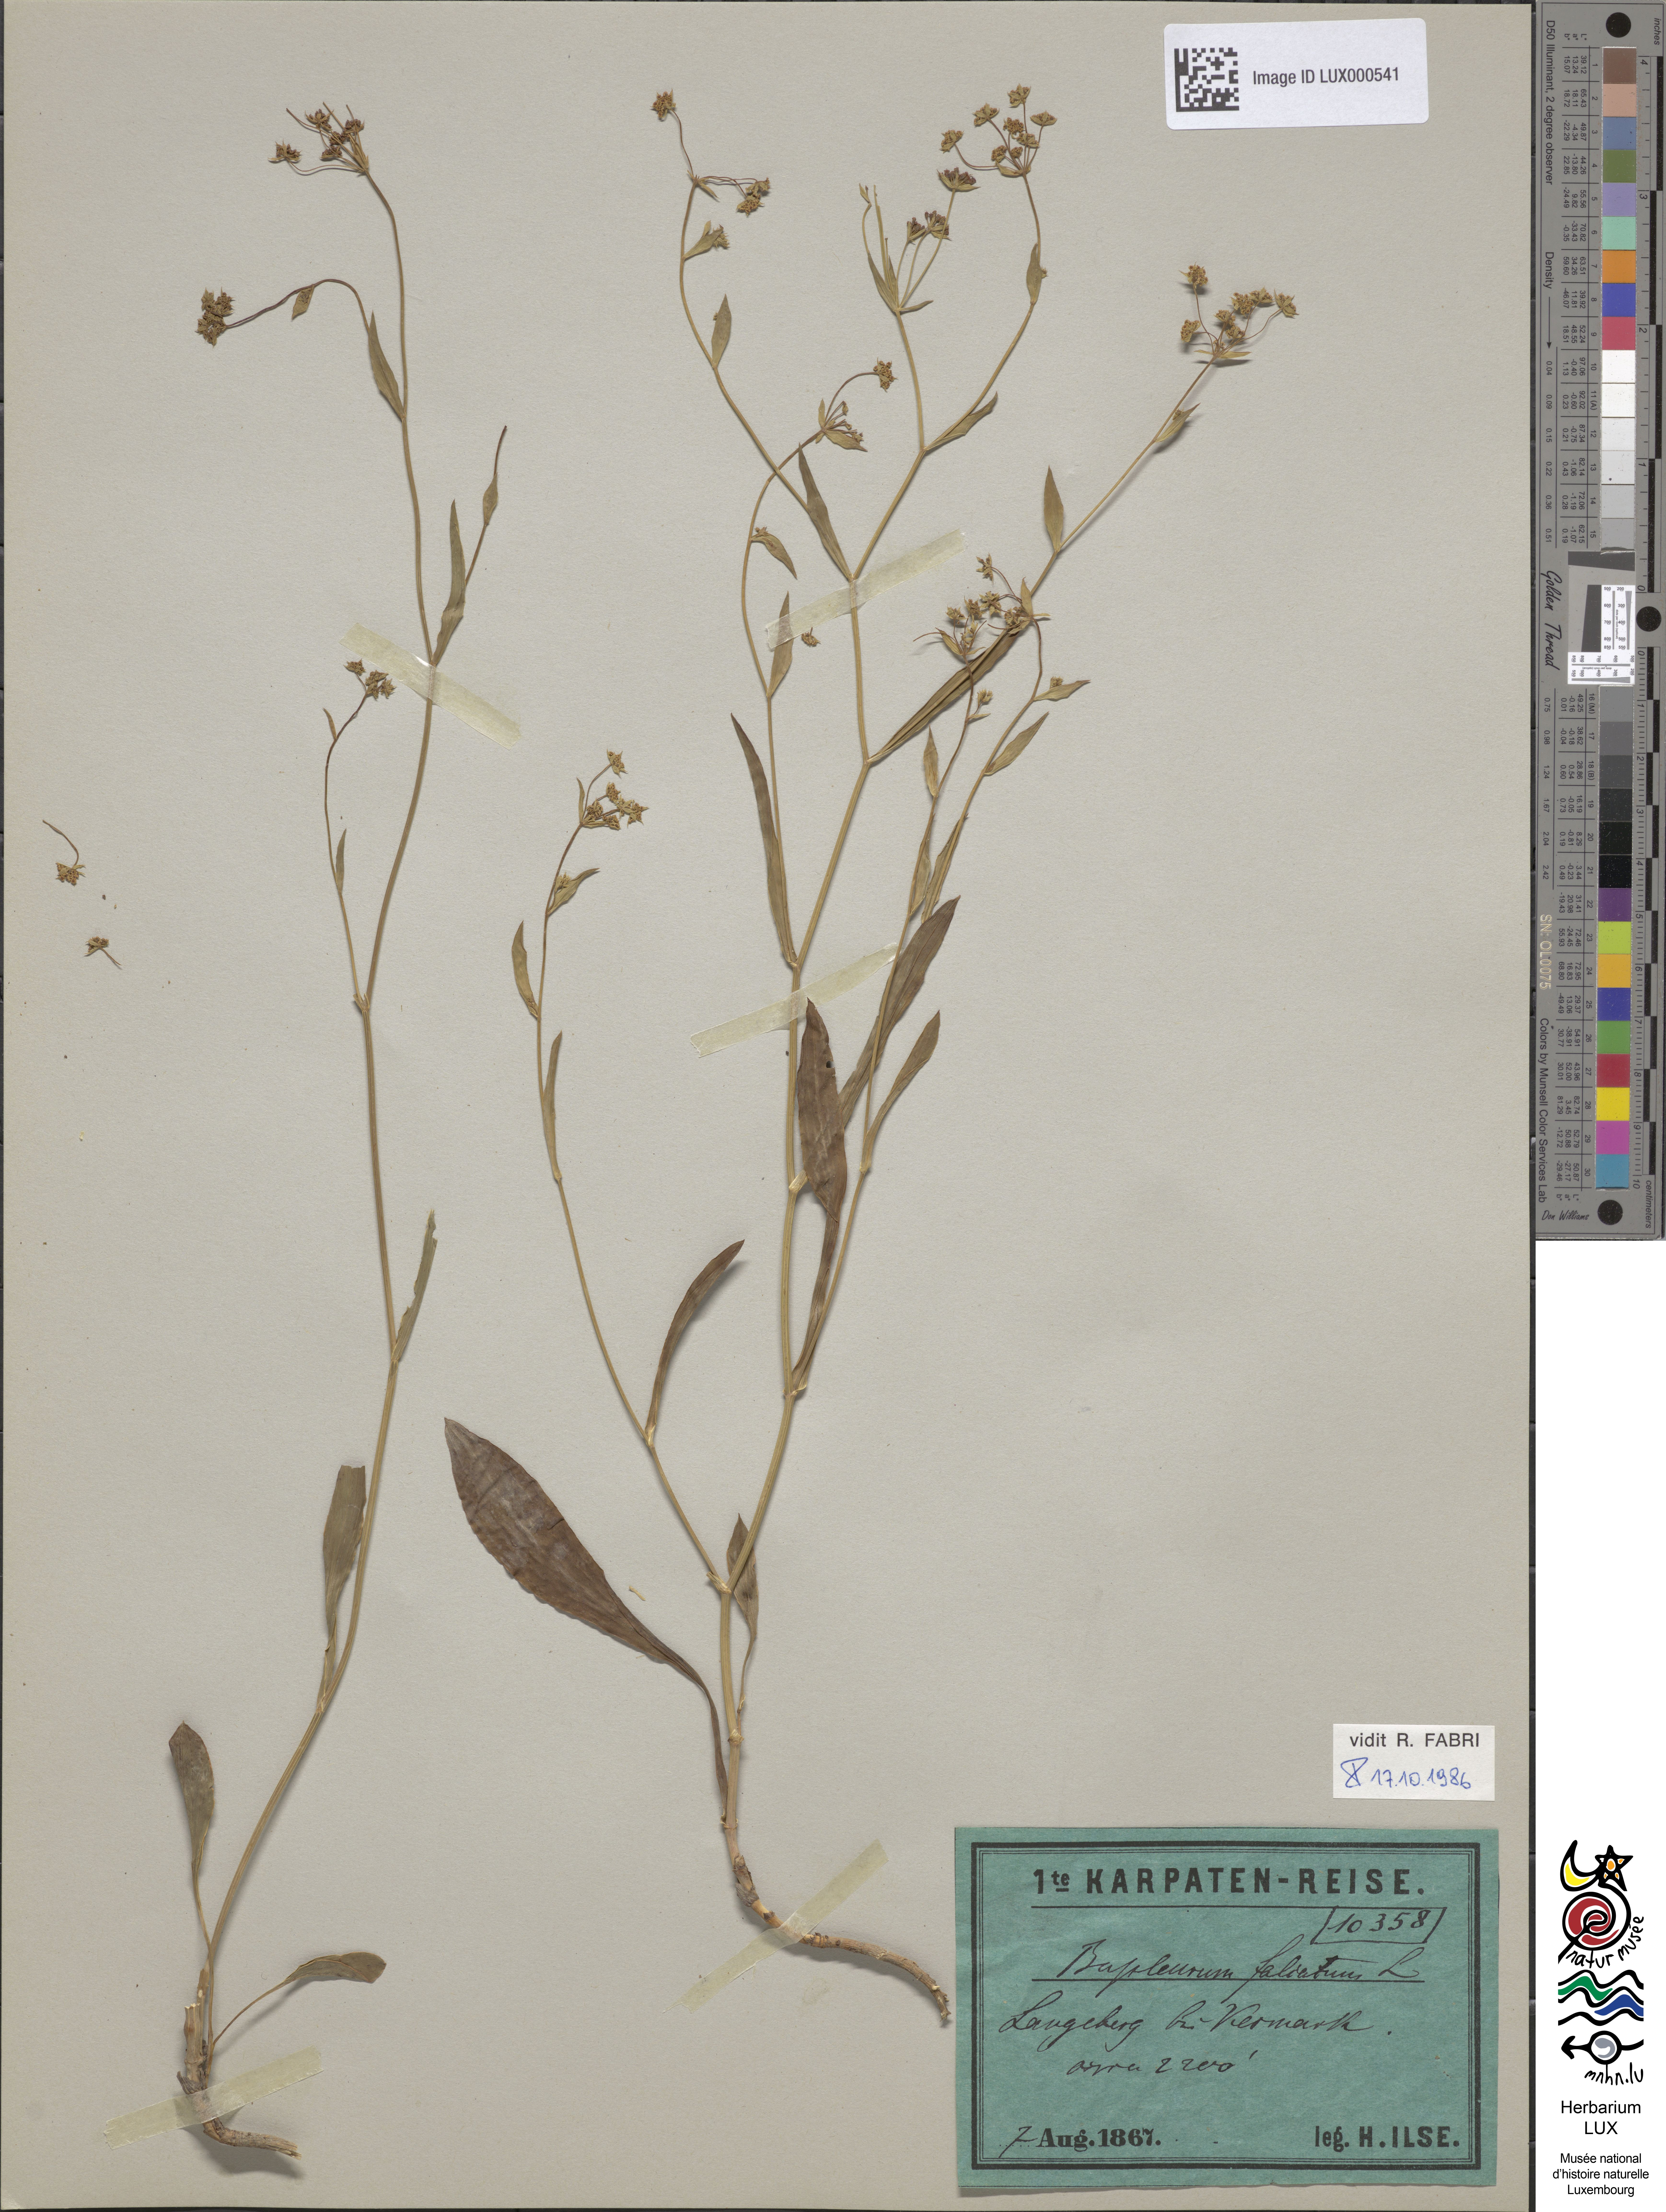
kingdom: Plantae
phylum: Tracheophyta
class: Magnoliopsida
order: Apiales
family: Apiaceae
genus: Bupleurum
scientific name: Bupleurum falcatum
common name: Sickle-leaved hare's-ear
